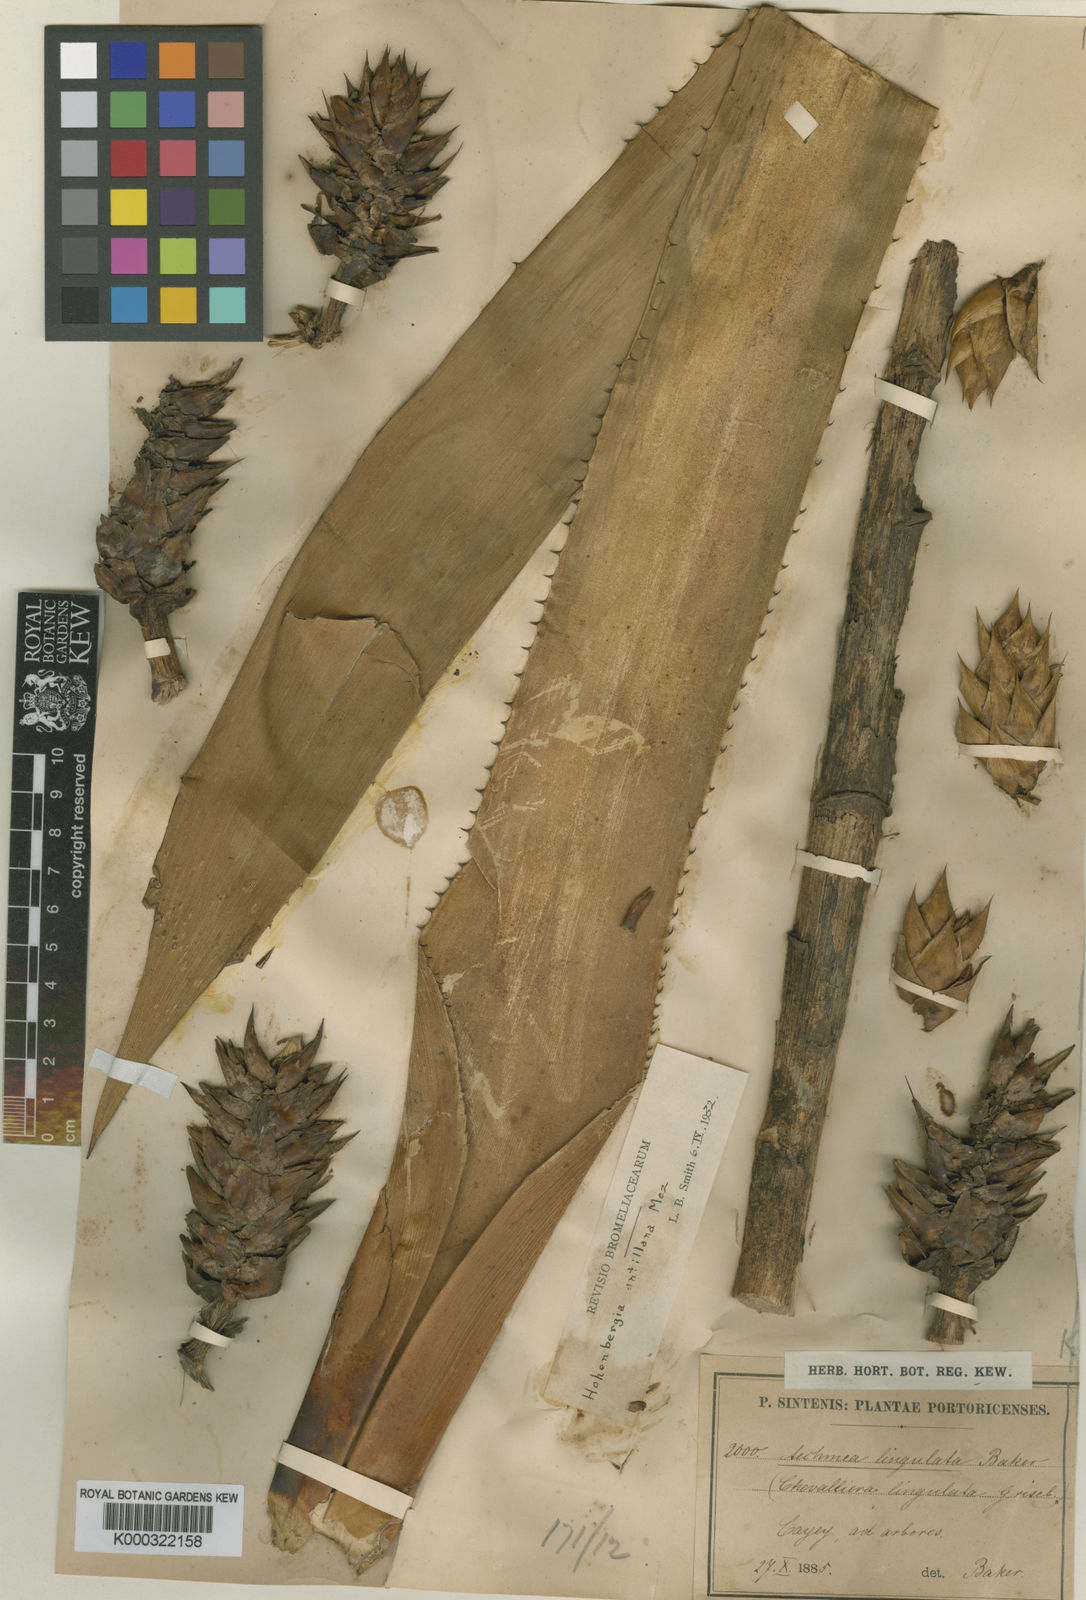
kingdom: Plantae
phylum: Tracheophyta
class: Liliopsida
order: Poales
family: Bromeliaceae
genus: Wittmackia
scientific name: Wittmackia antillana
